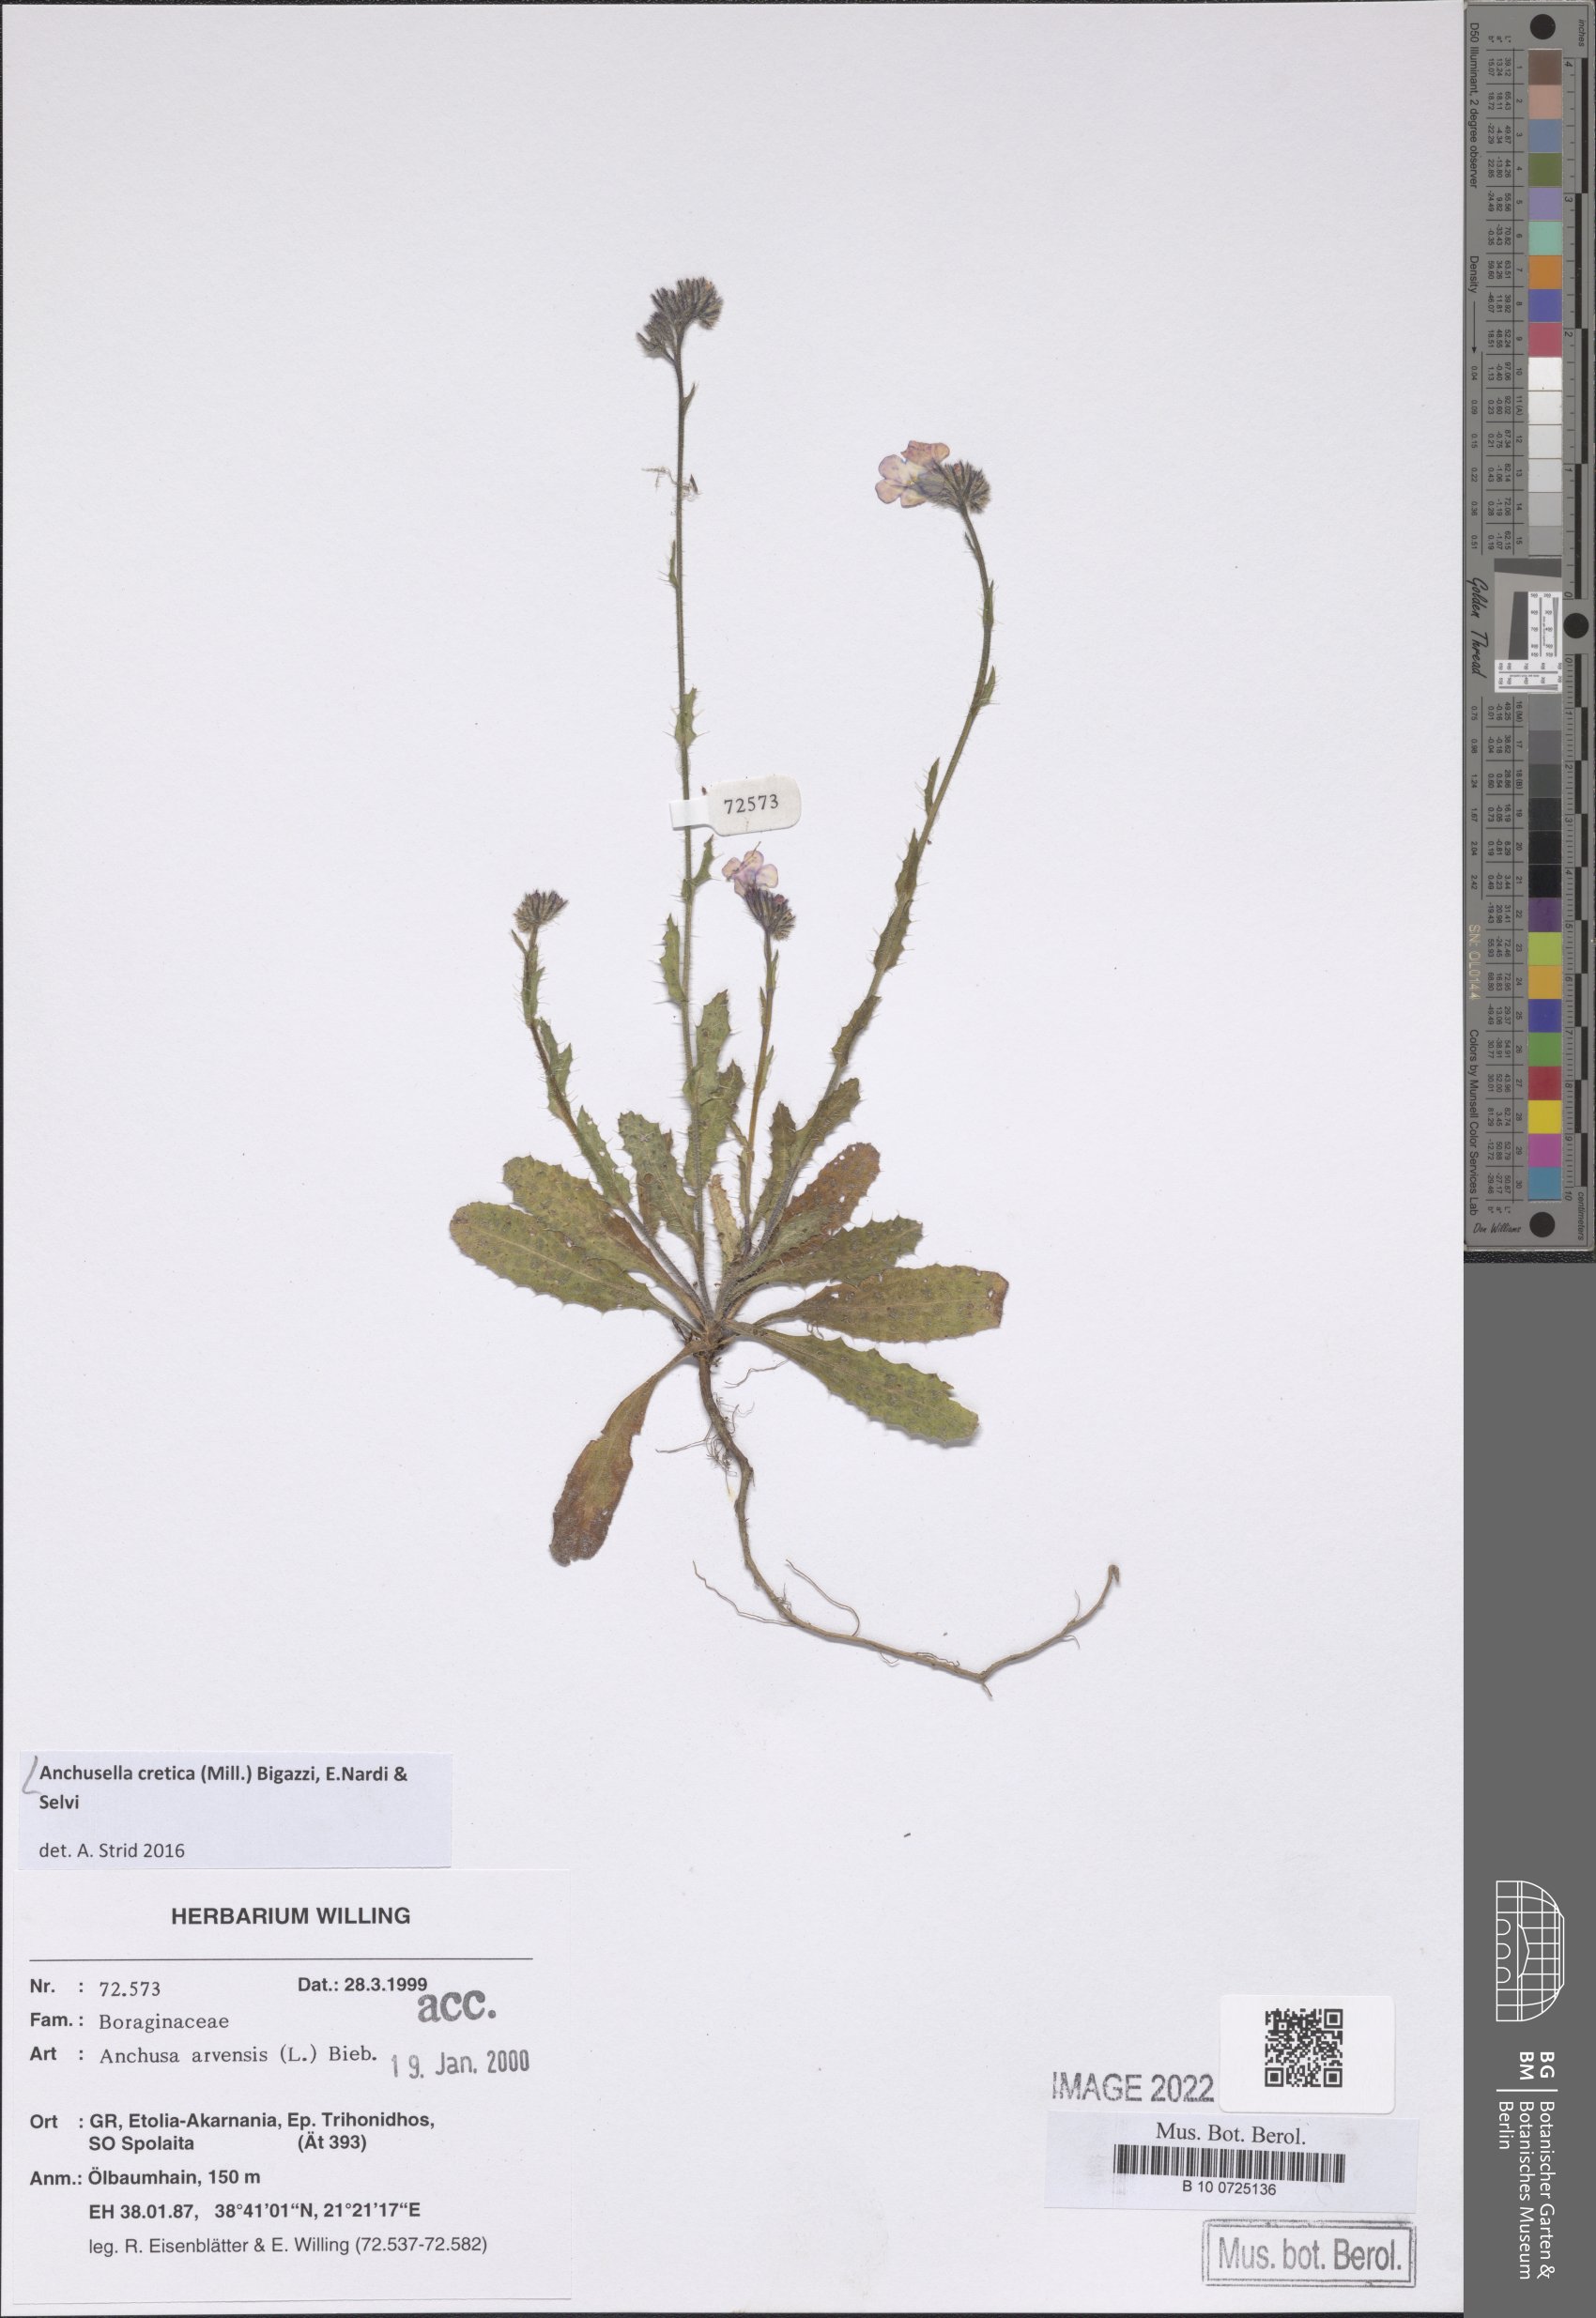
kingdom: Plantae
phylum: Tracheophyta
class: Magnoliopsida
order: Boraginales
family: Boraginaceae
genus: Anchusella
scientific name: Anchusella cretica
